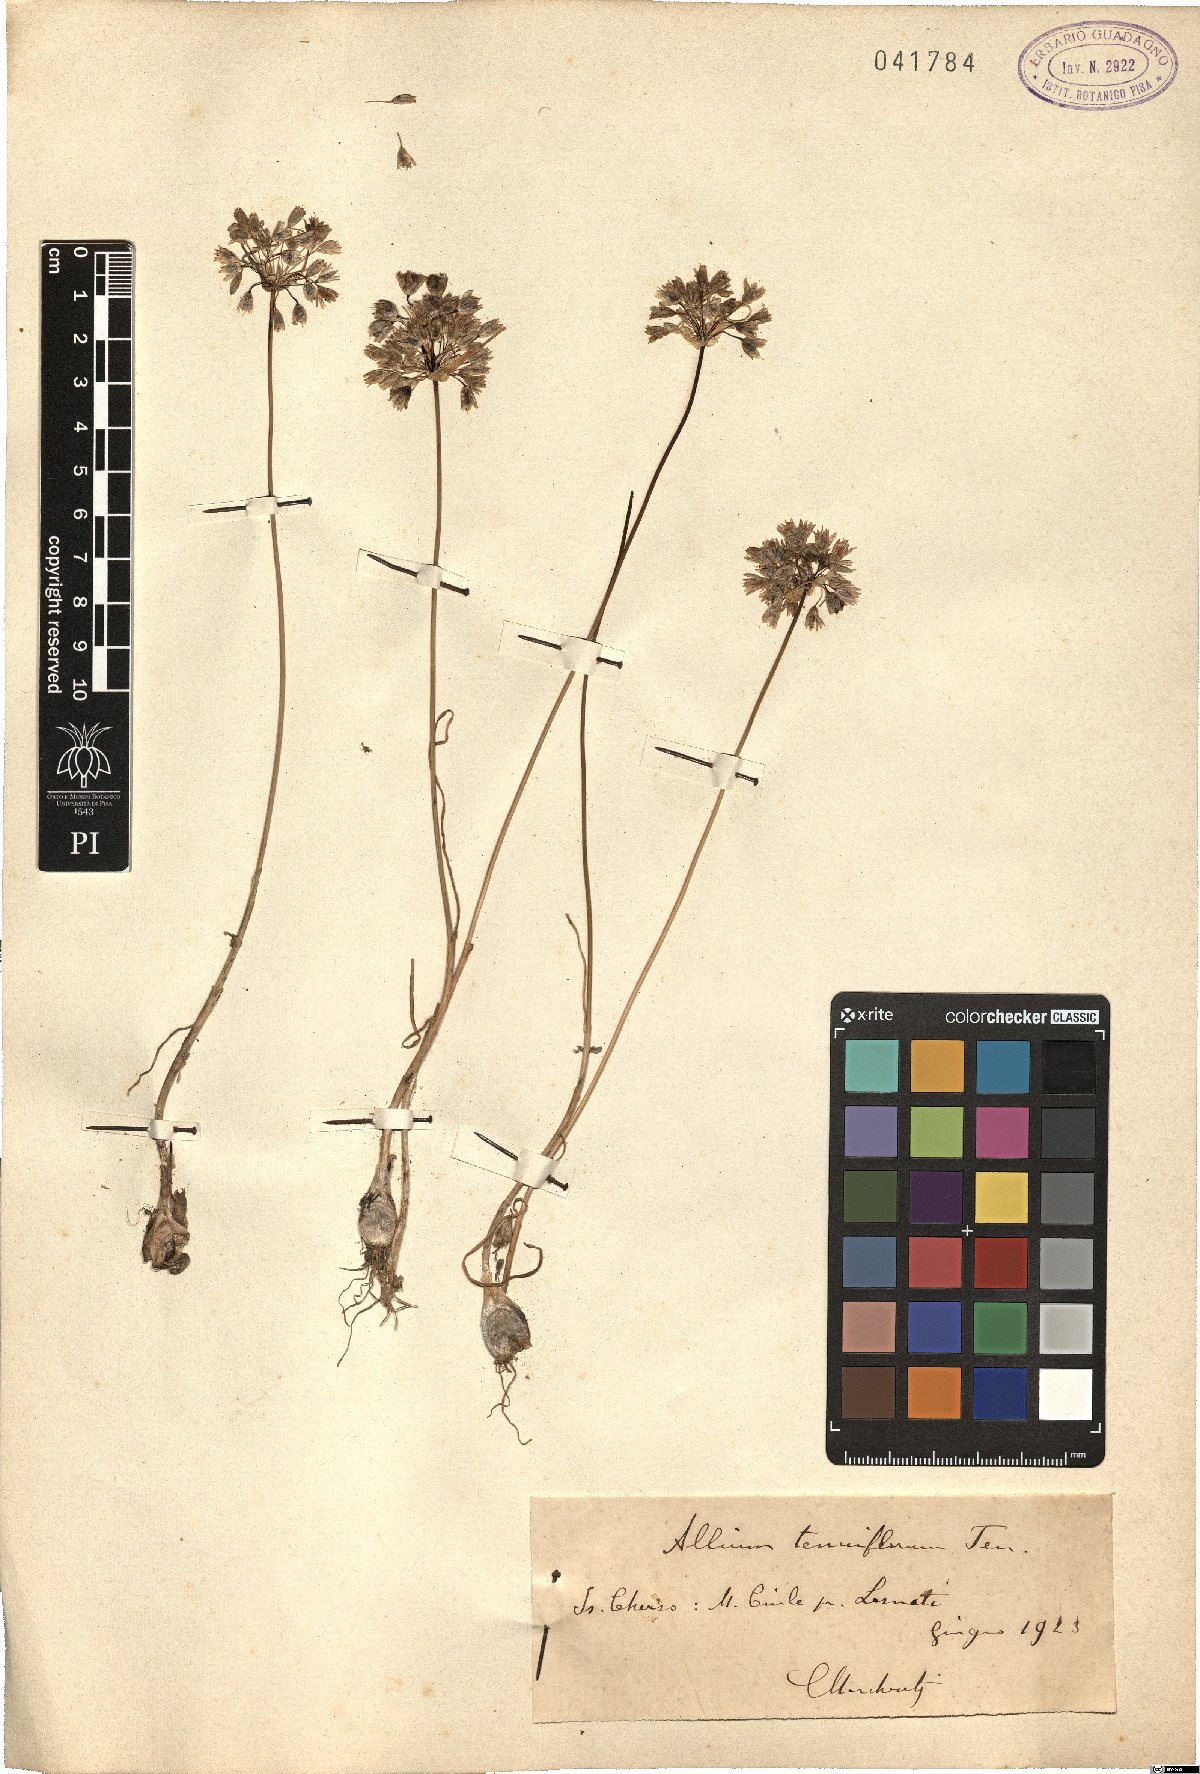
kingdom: Plantae
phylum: Tracheophyta
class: Liliopsida
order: Asparagales
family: Amaryllidaceae
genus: Allium
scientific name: Allium tenuiflorum
